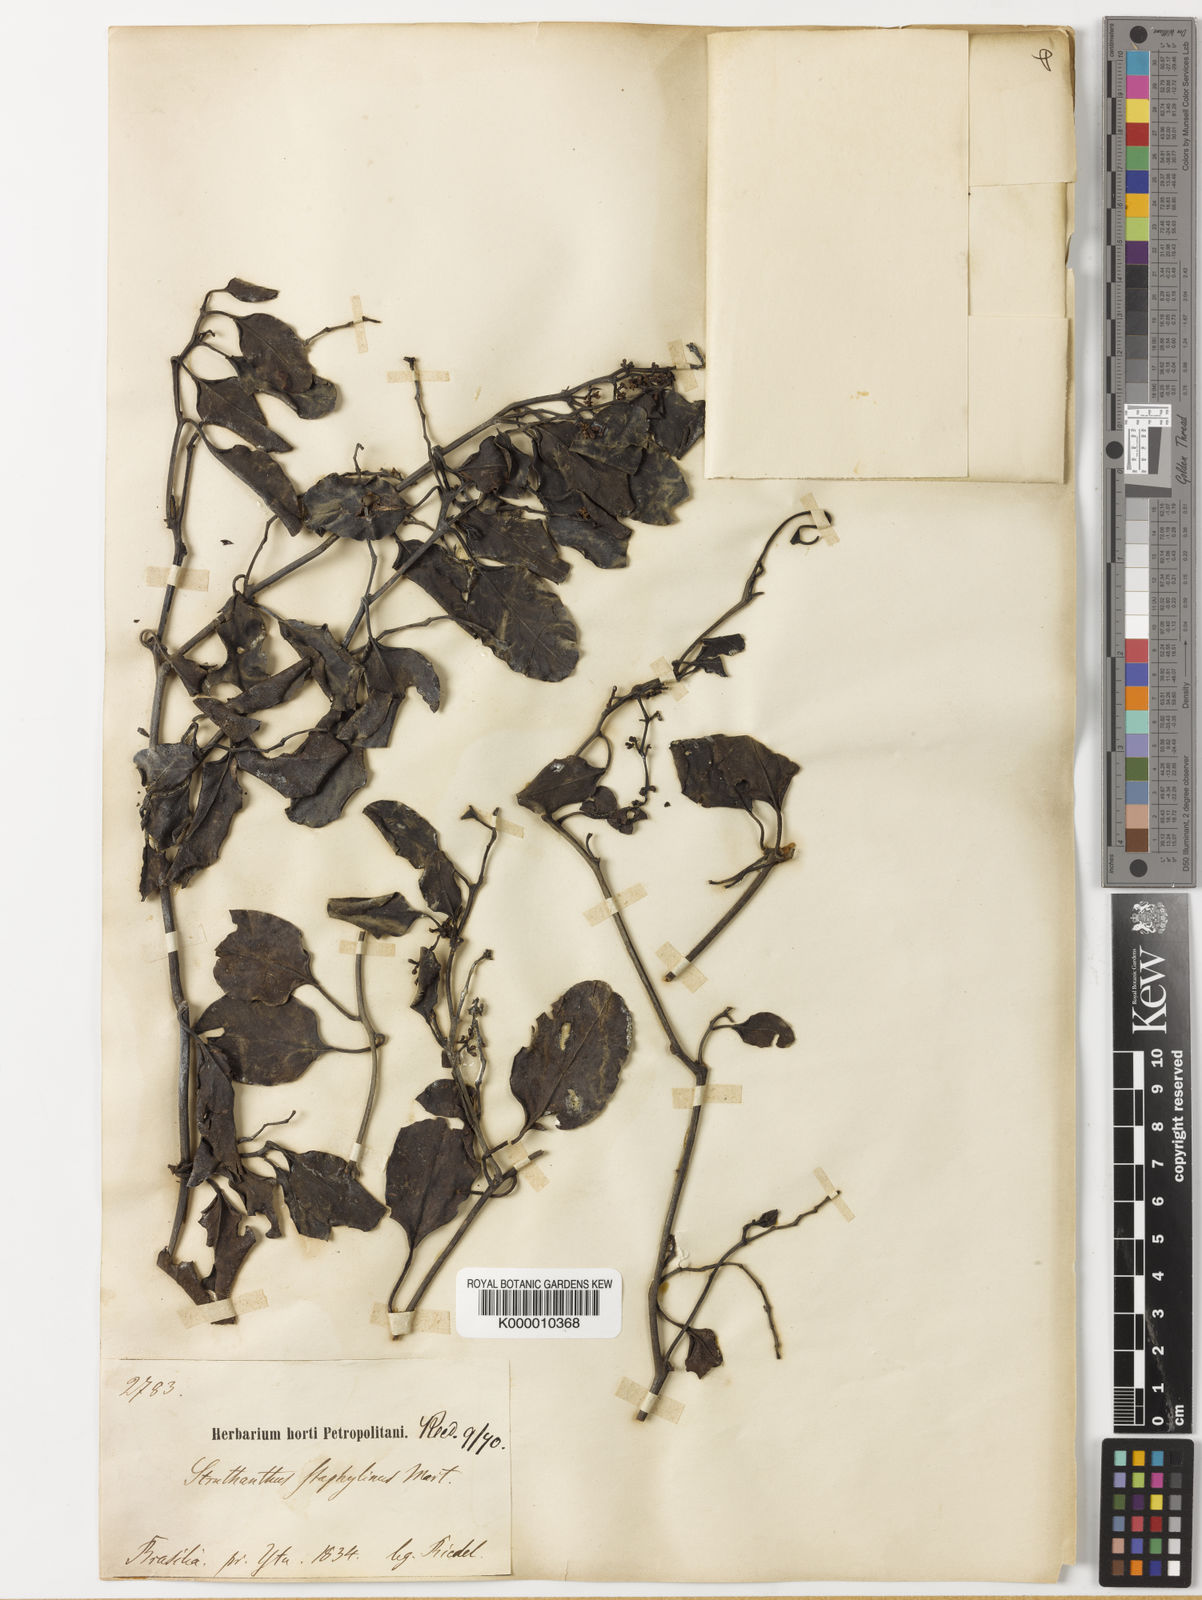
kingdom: Plantae
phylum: Tracheophyta
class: Magnoliopsida
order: Santalales
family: Loranthaceae
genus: Struthanthus
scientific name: Struthanthus staphylinus
